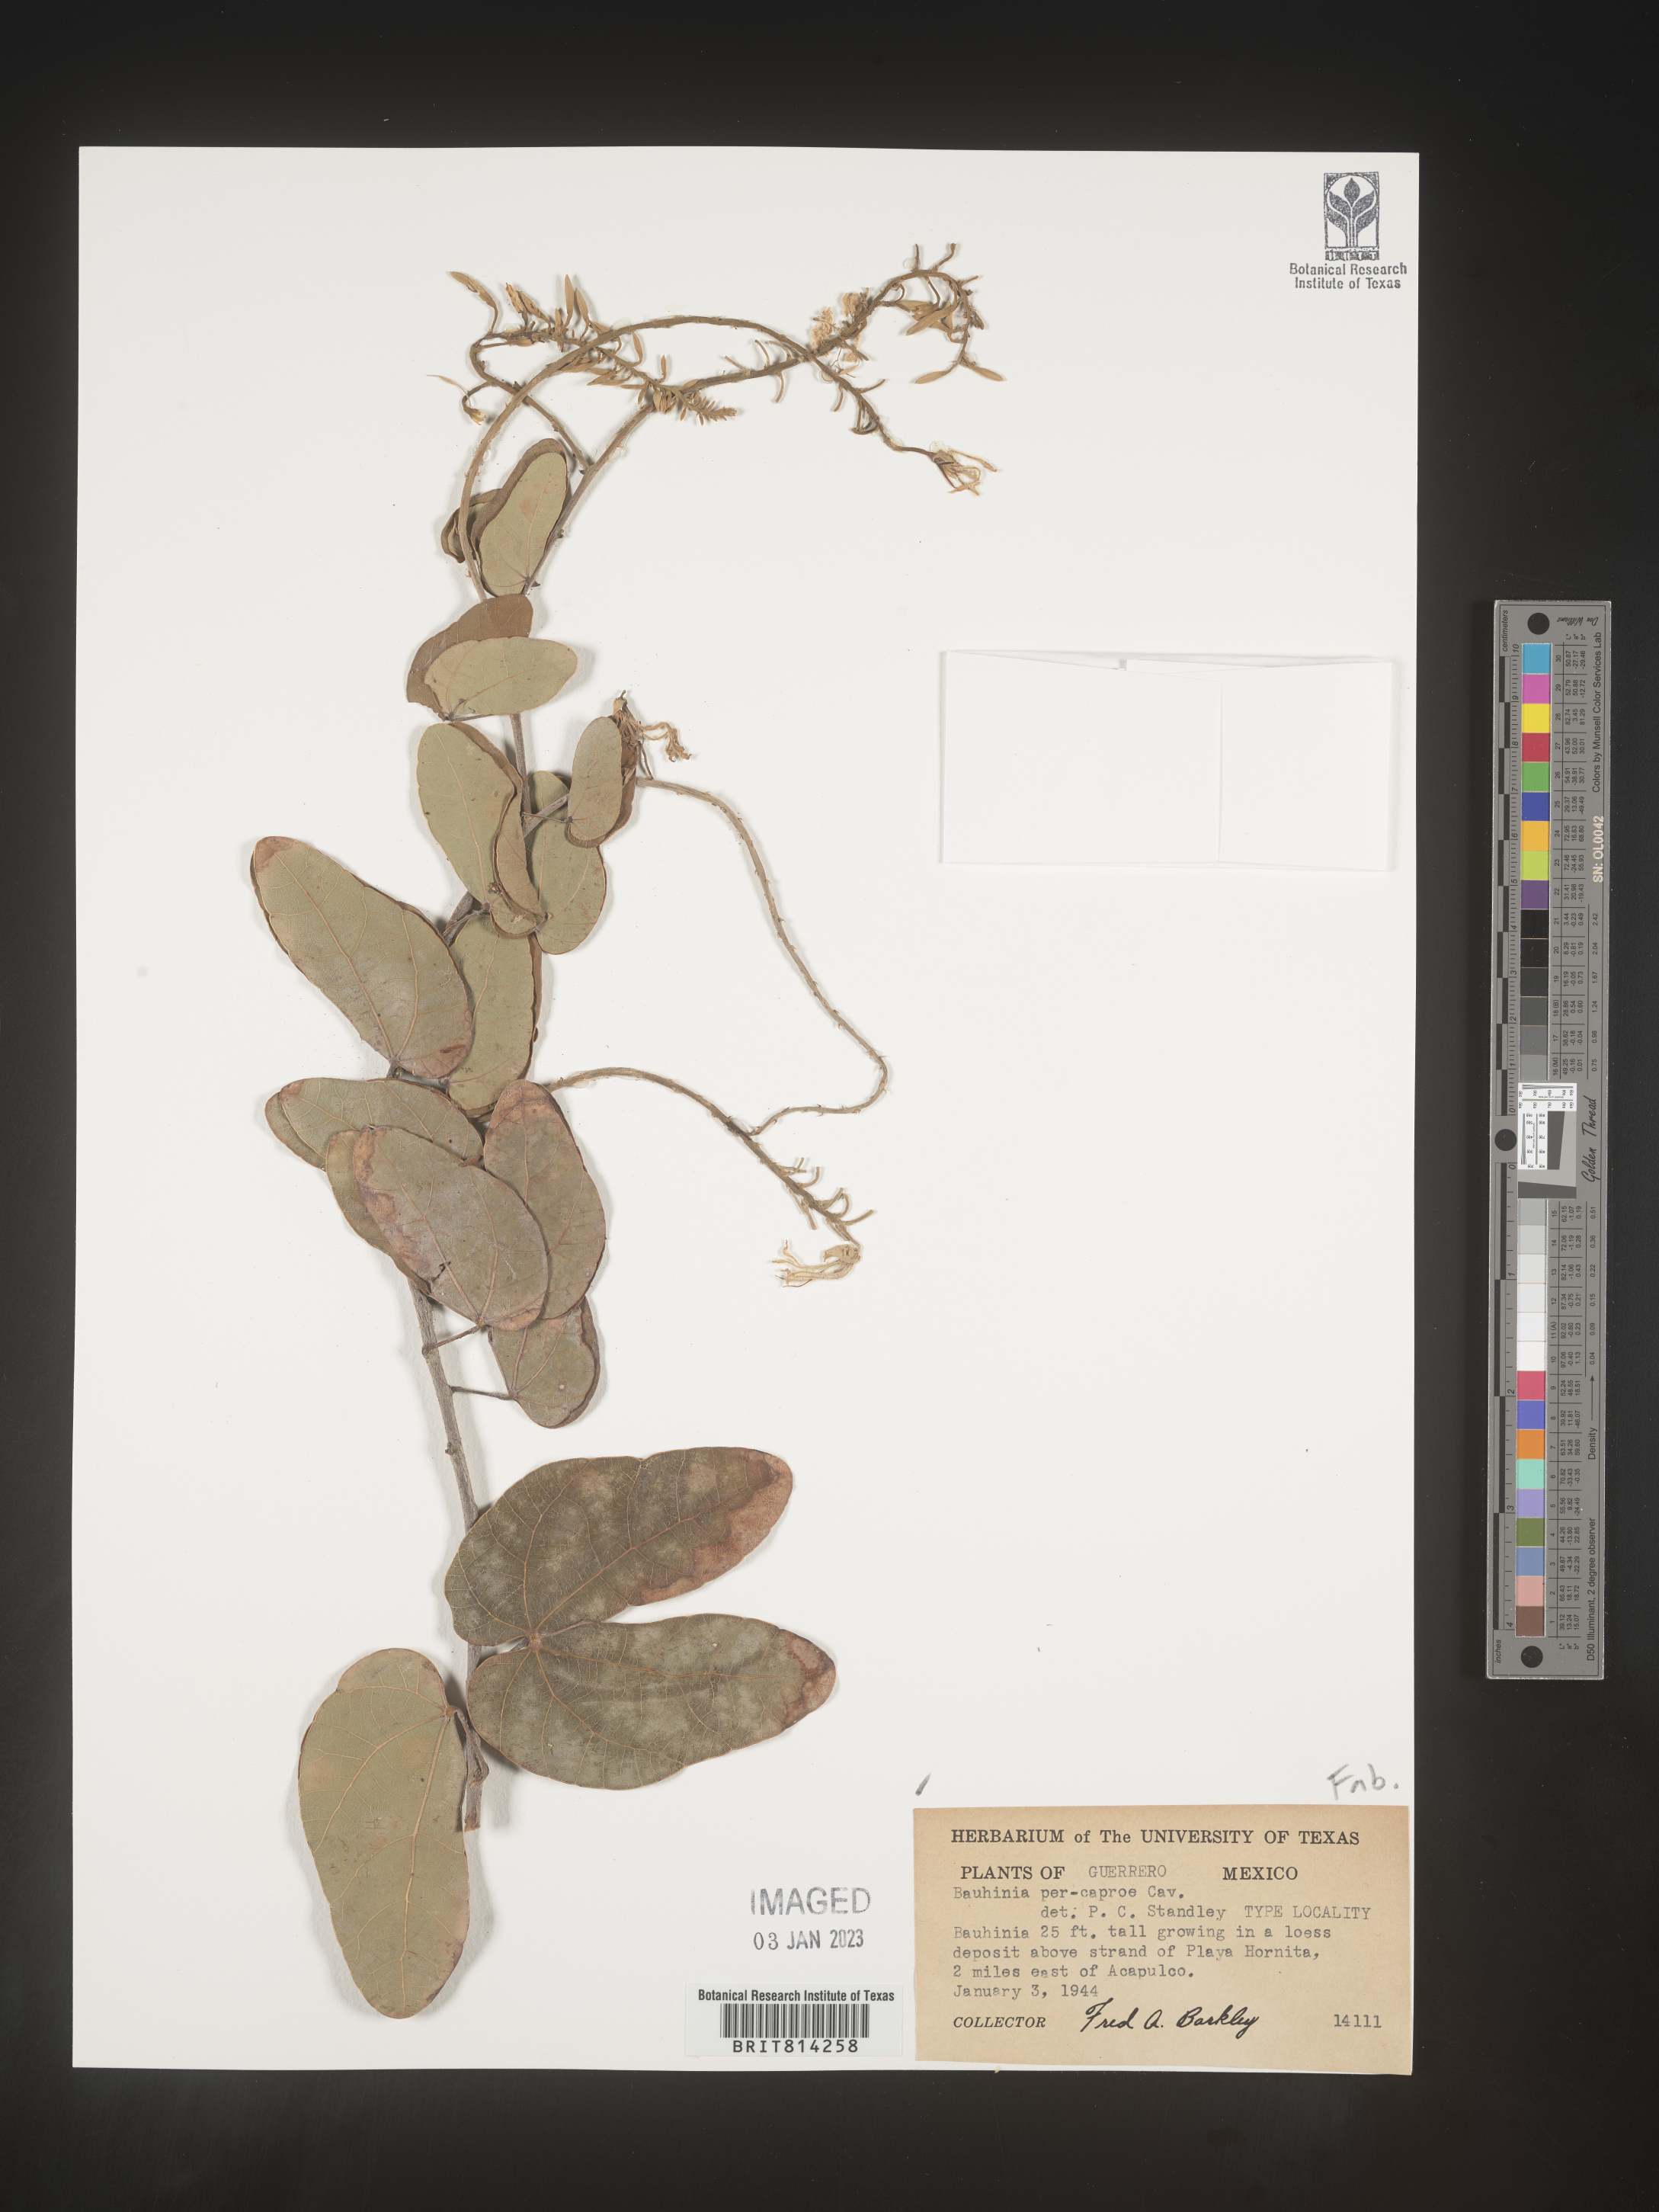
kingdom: Plantae
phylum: Tracheophyta
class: Magnoliopsida
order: Fabales
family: Fabaceae
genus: Bauhinia
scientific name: Bauhinia
